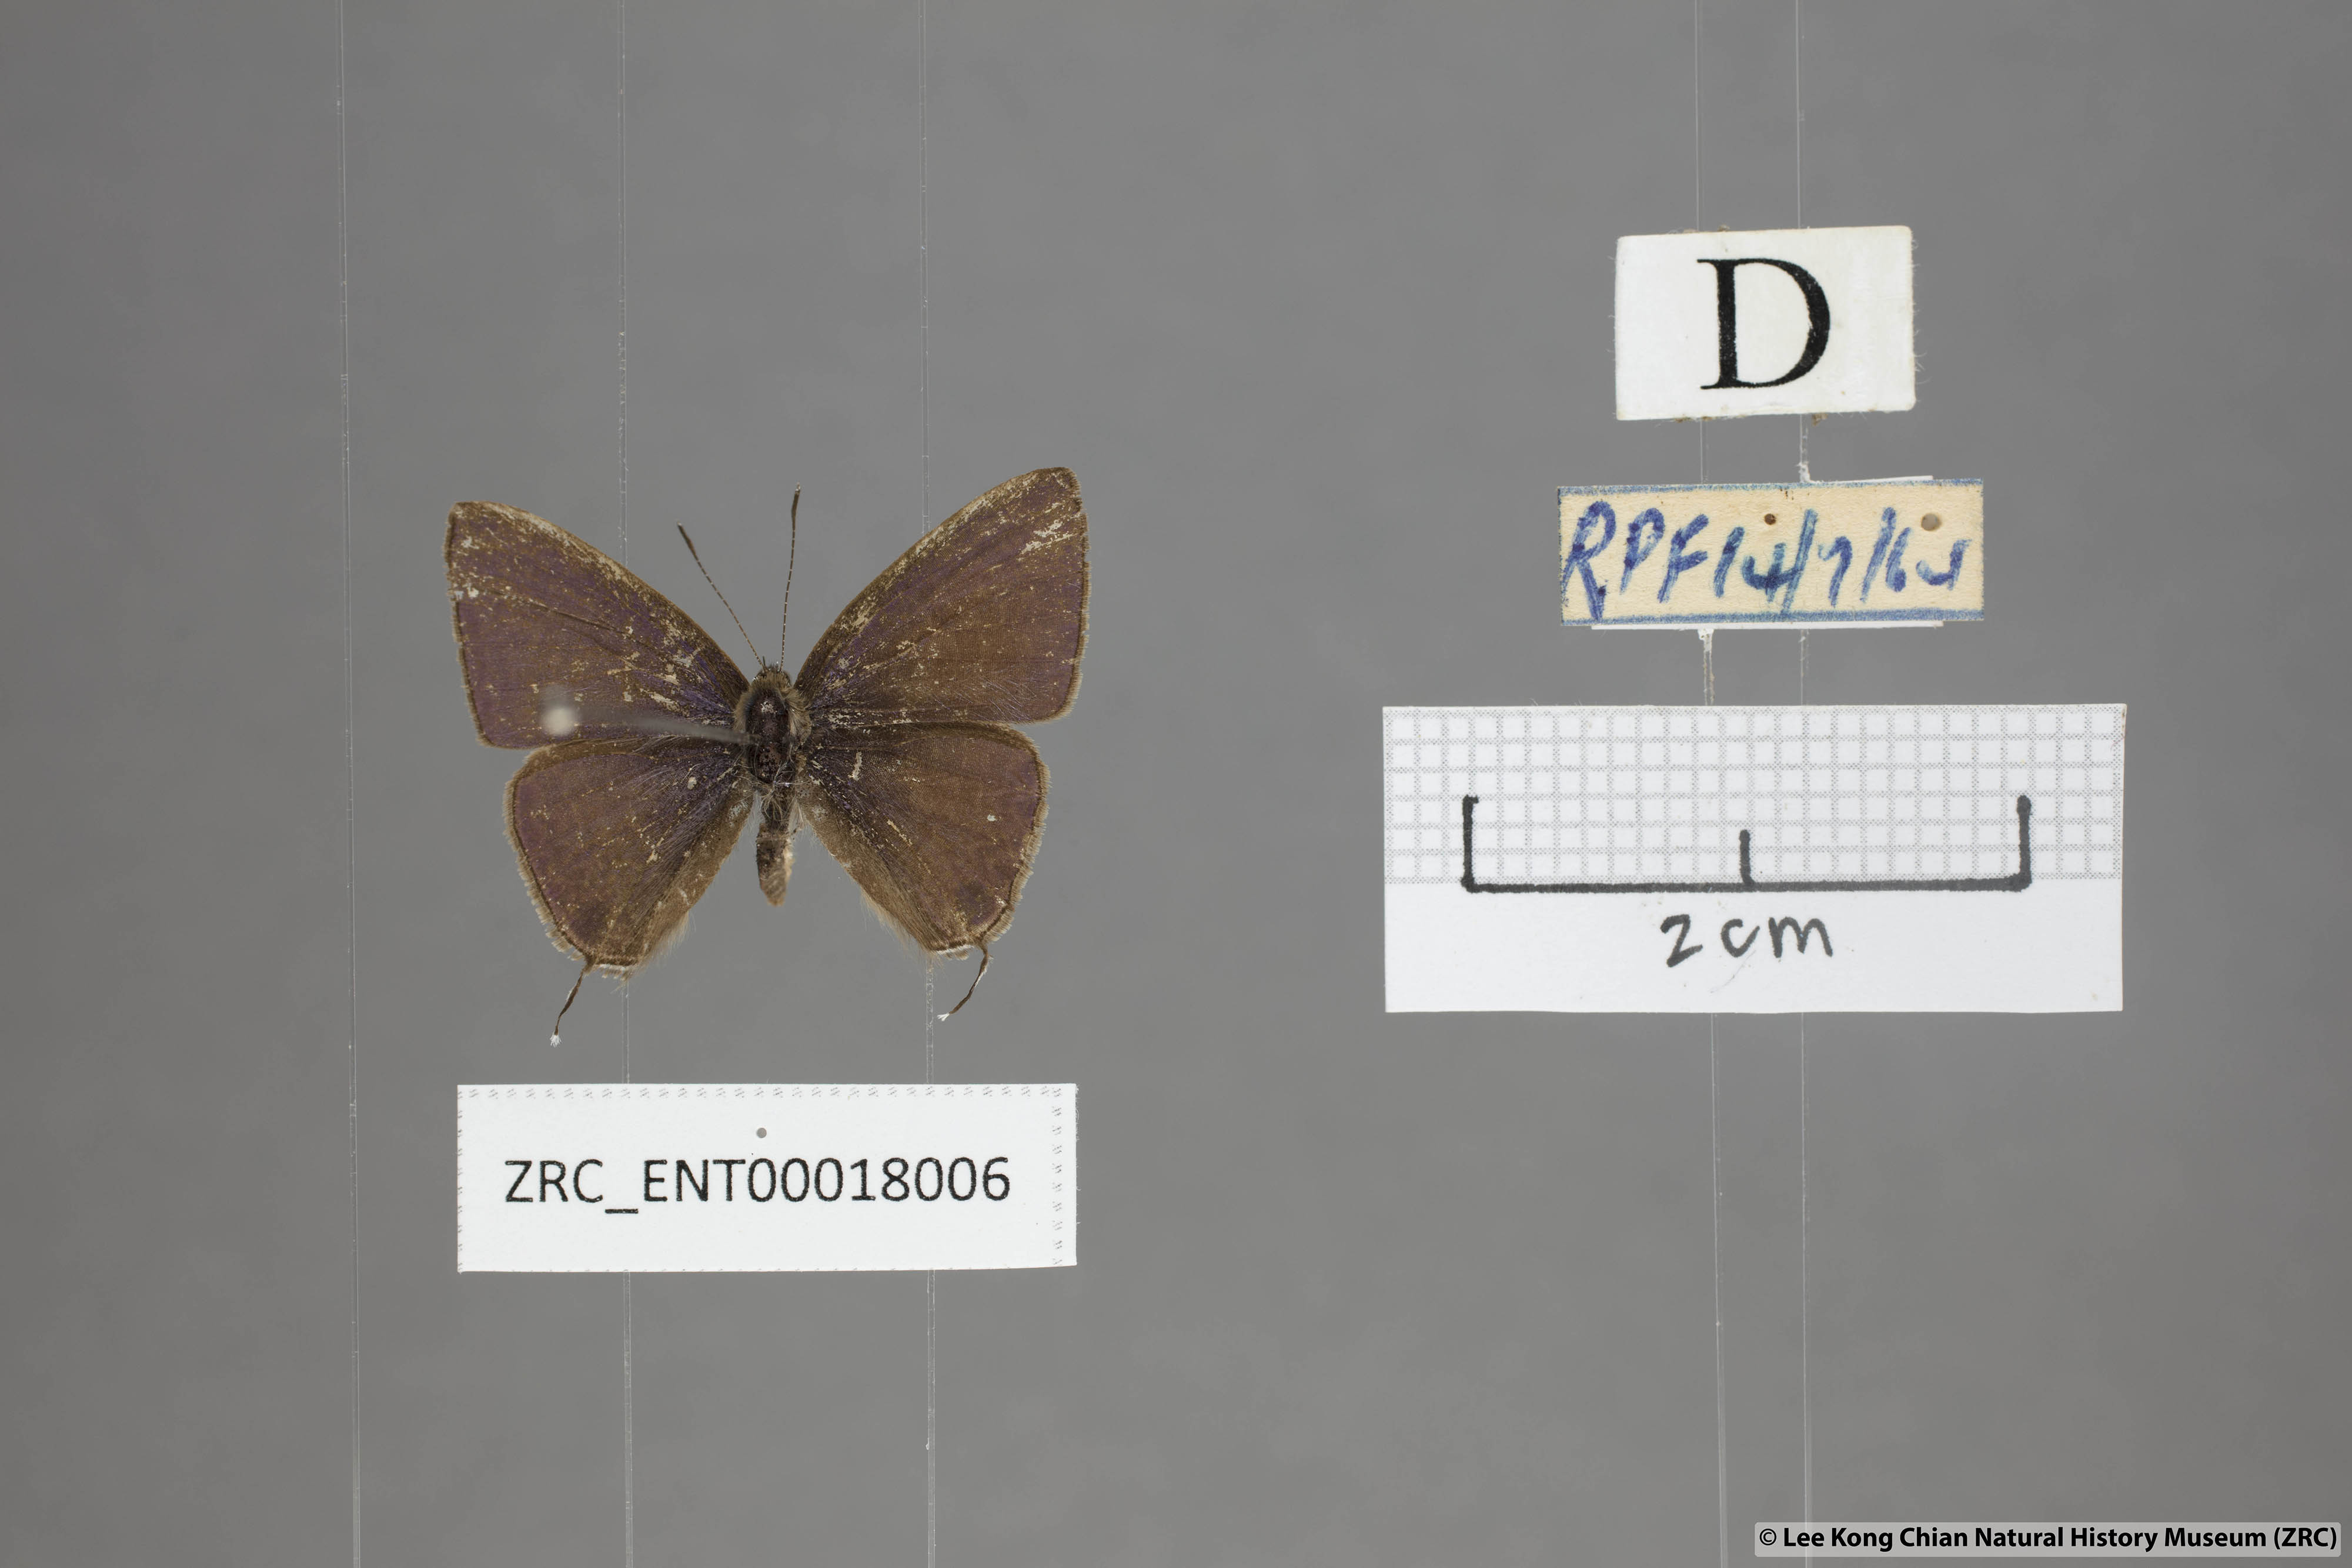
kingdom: Animalia
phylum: Arthropoda
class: Insecta
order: Lepidoptera
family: Lycaenidae
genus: Ionolyce
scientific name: Ionolyce helicon
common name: Pointed line blue
